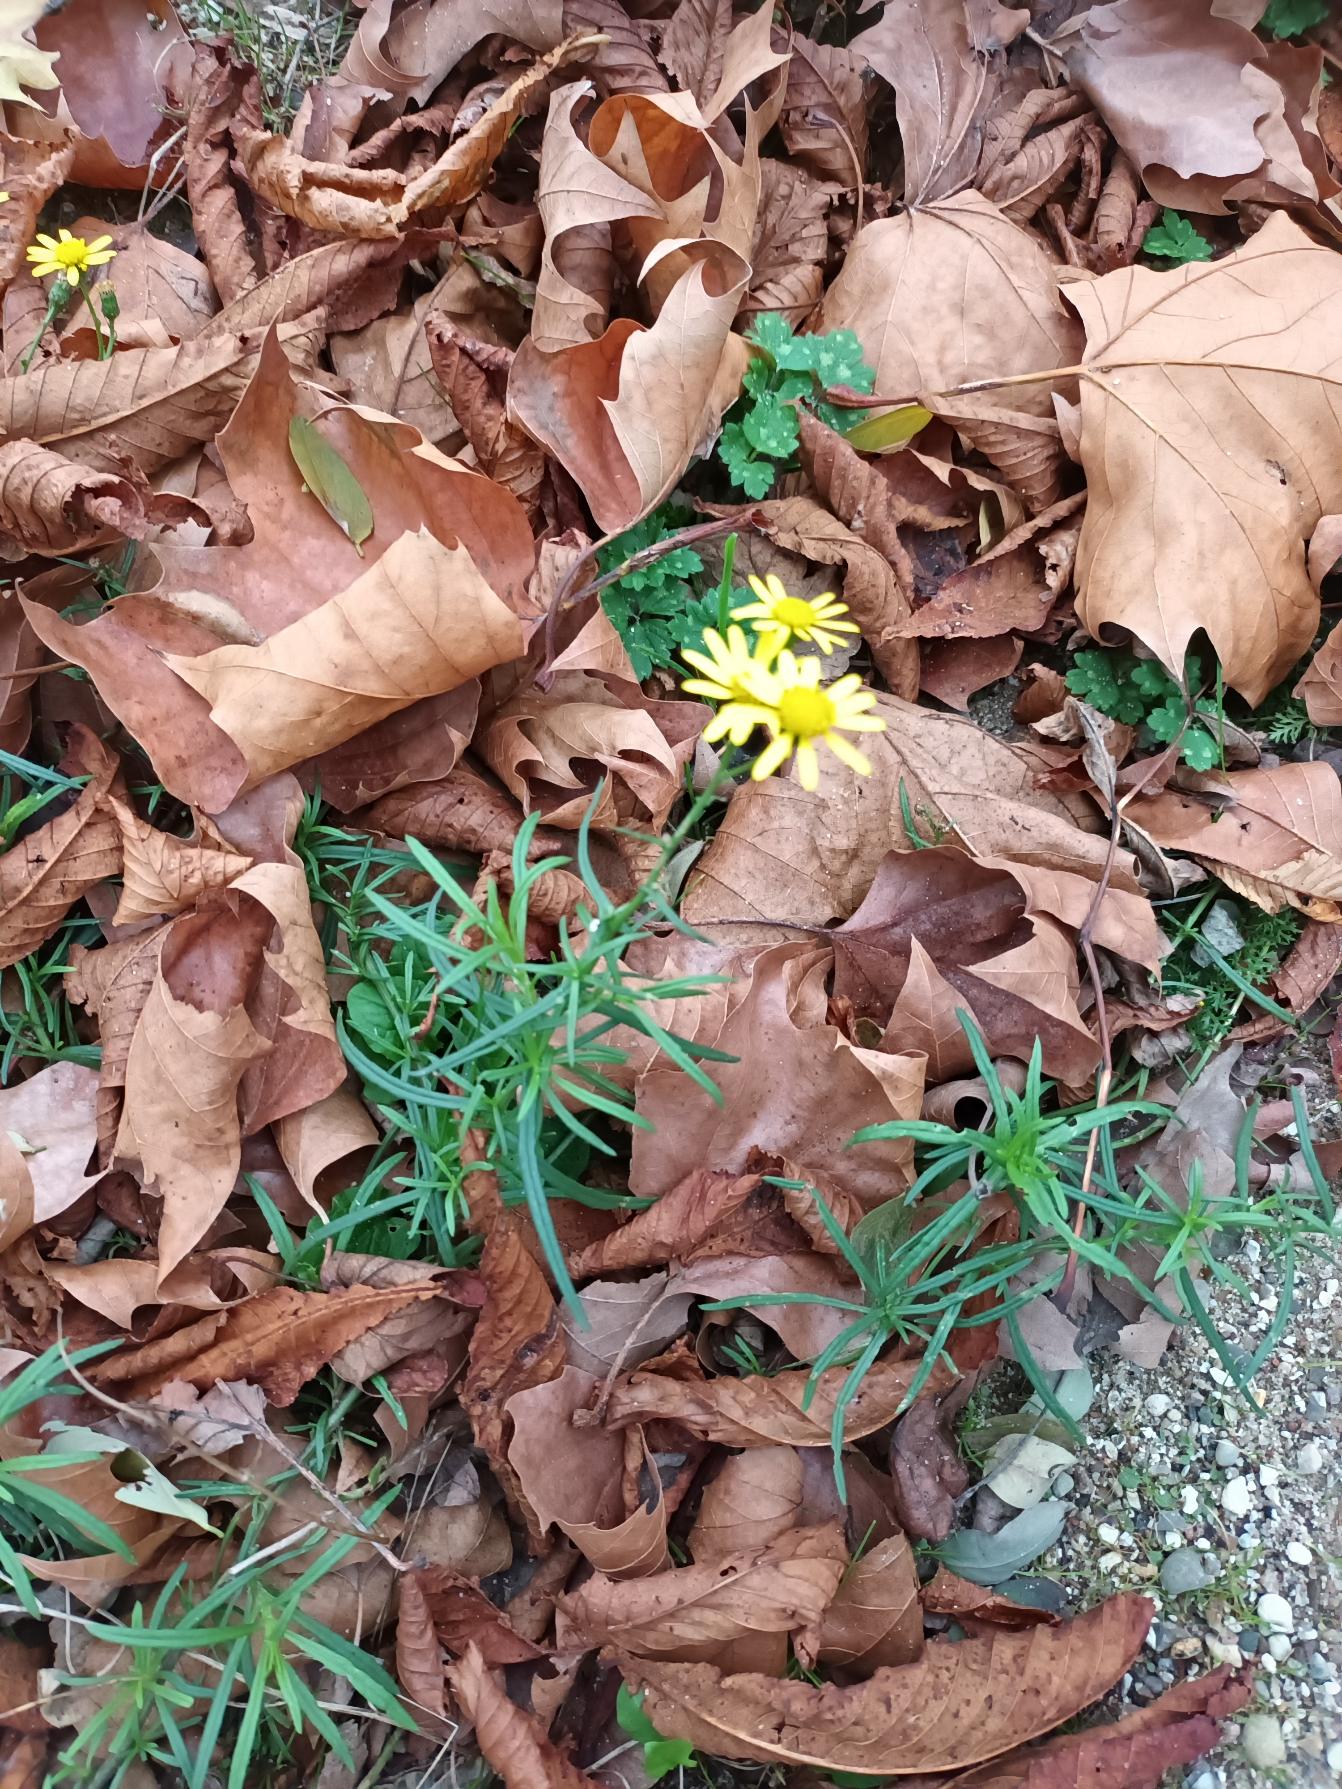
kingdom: Plantae
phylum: Tracheophyta
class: Magnoliopsida
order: Asterales
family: Asteraceae
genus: Senecio
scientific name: Senecio inaequidens
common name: Smalbladet brandbæger
